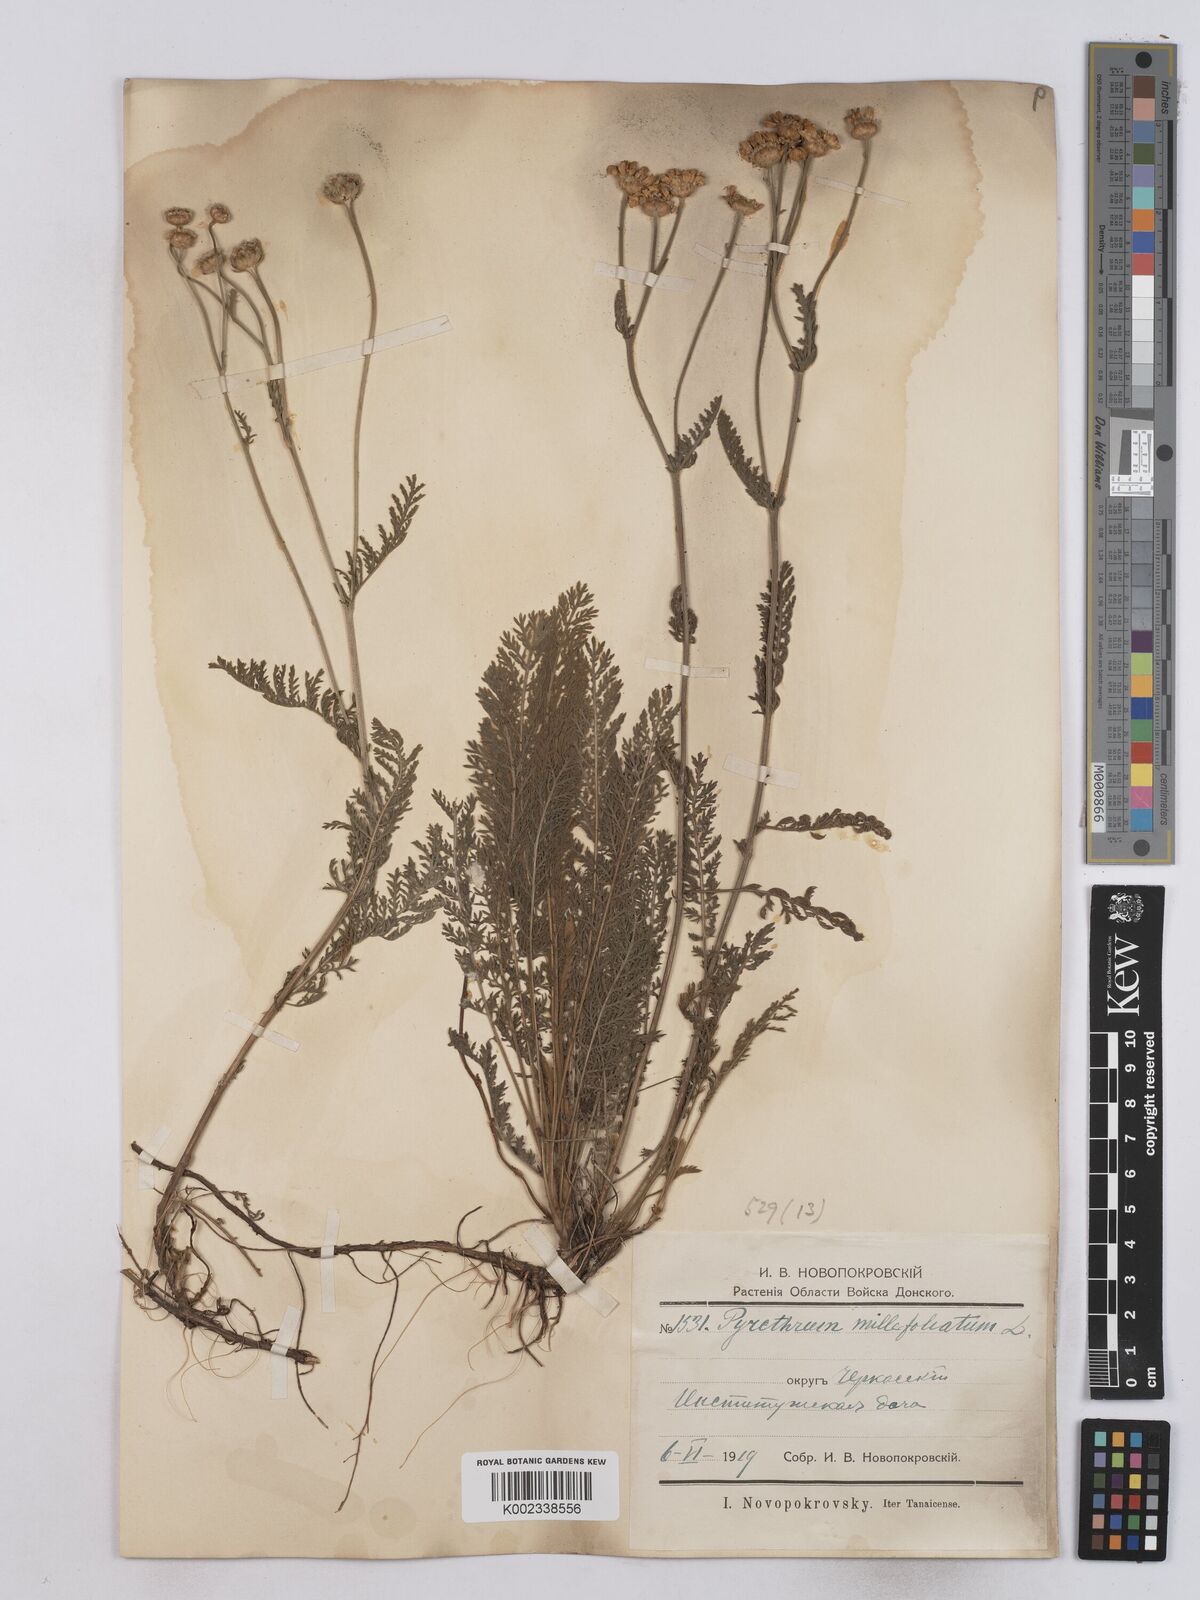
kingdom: Plantae
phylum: Tracheophyta
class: Magnoliopsida
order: Asterales
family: Asteraceae
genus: Tanacetum
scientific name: Tanacetum millefolium
